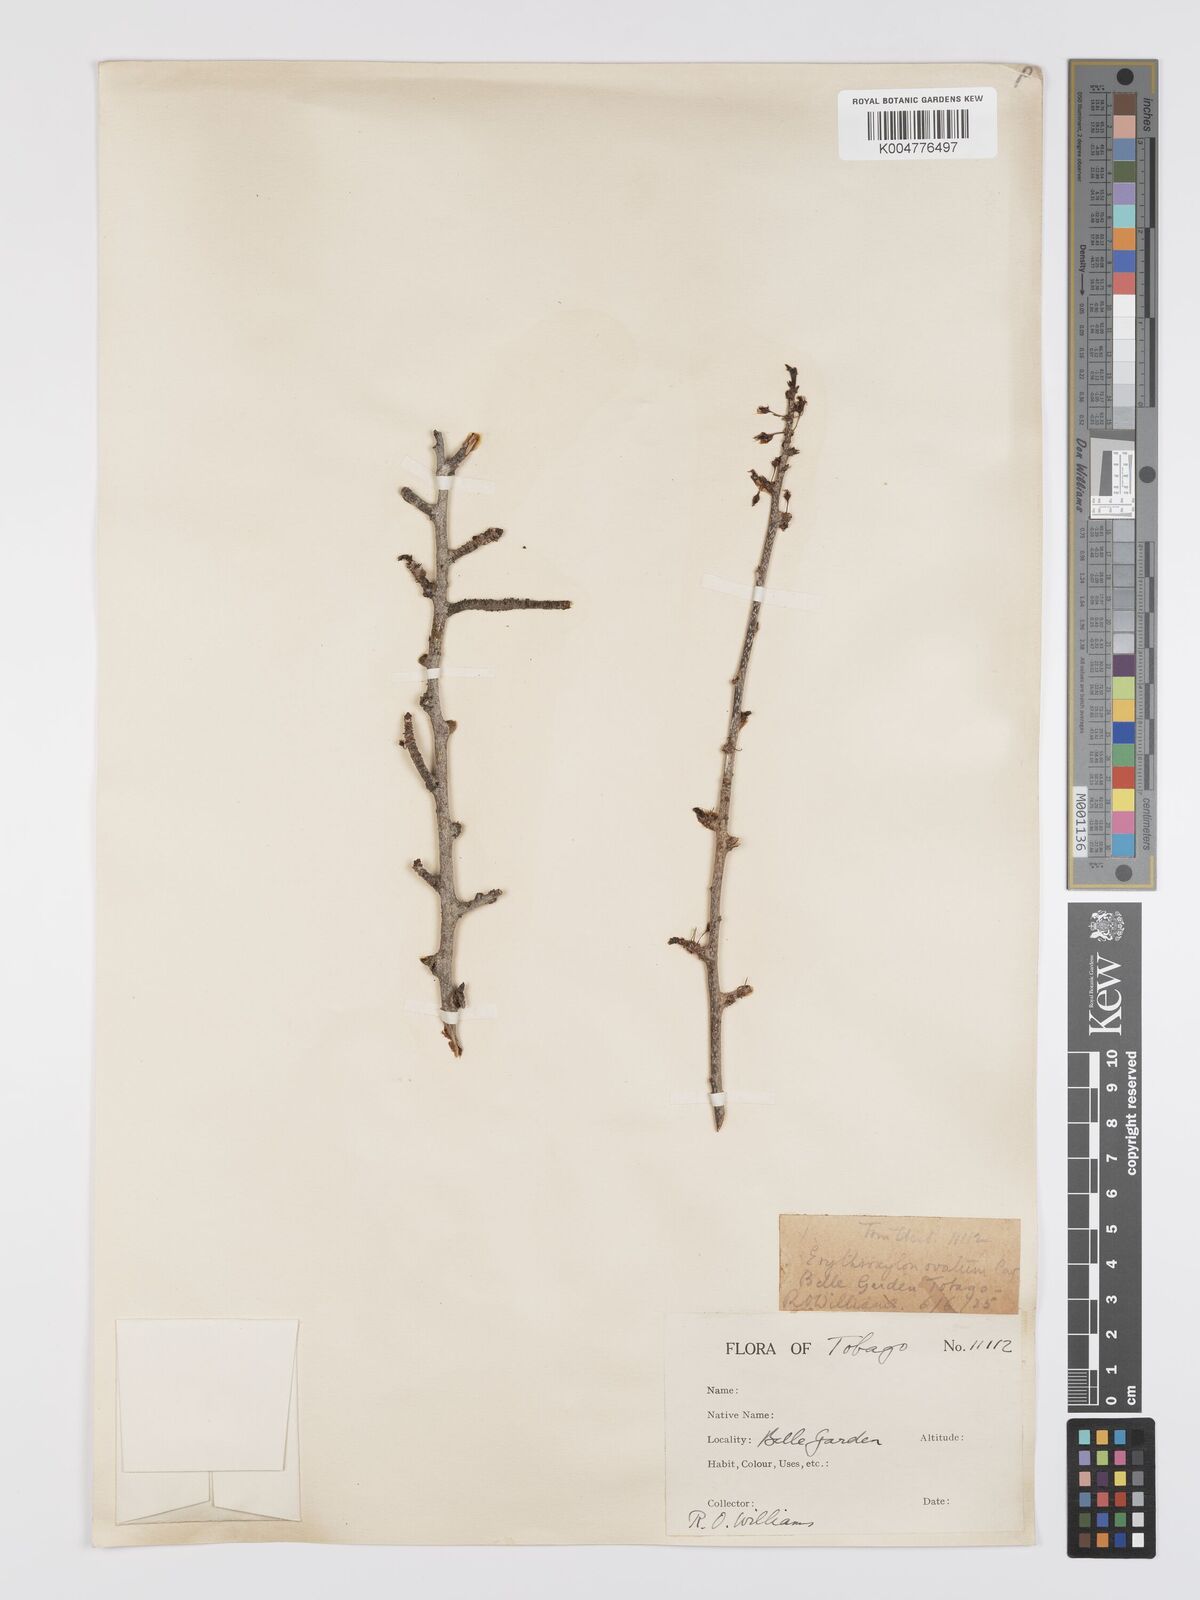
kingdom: Plantae
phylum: Tracheophyta
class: Magnoliopsida
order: Malpighiales
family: Erythroxylaceae
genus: Erythroxylum
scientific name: Erythroxylum havanense
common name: Bracelet
